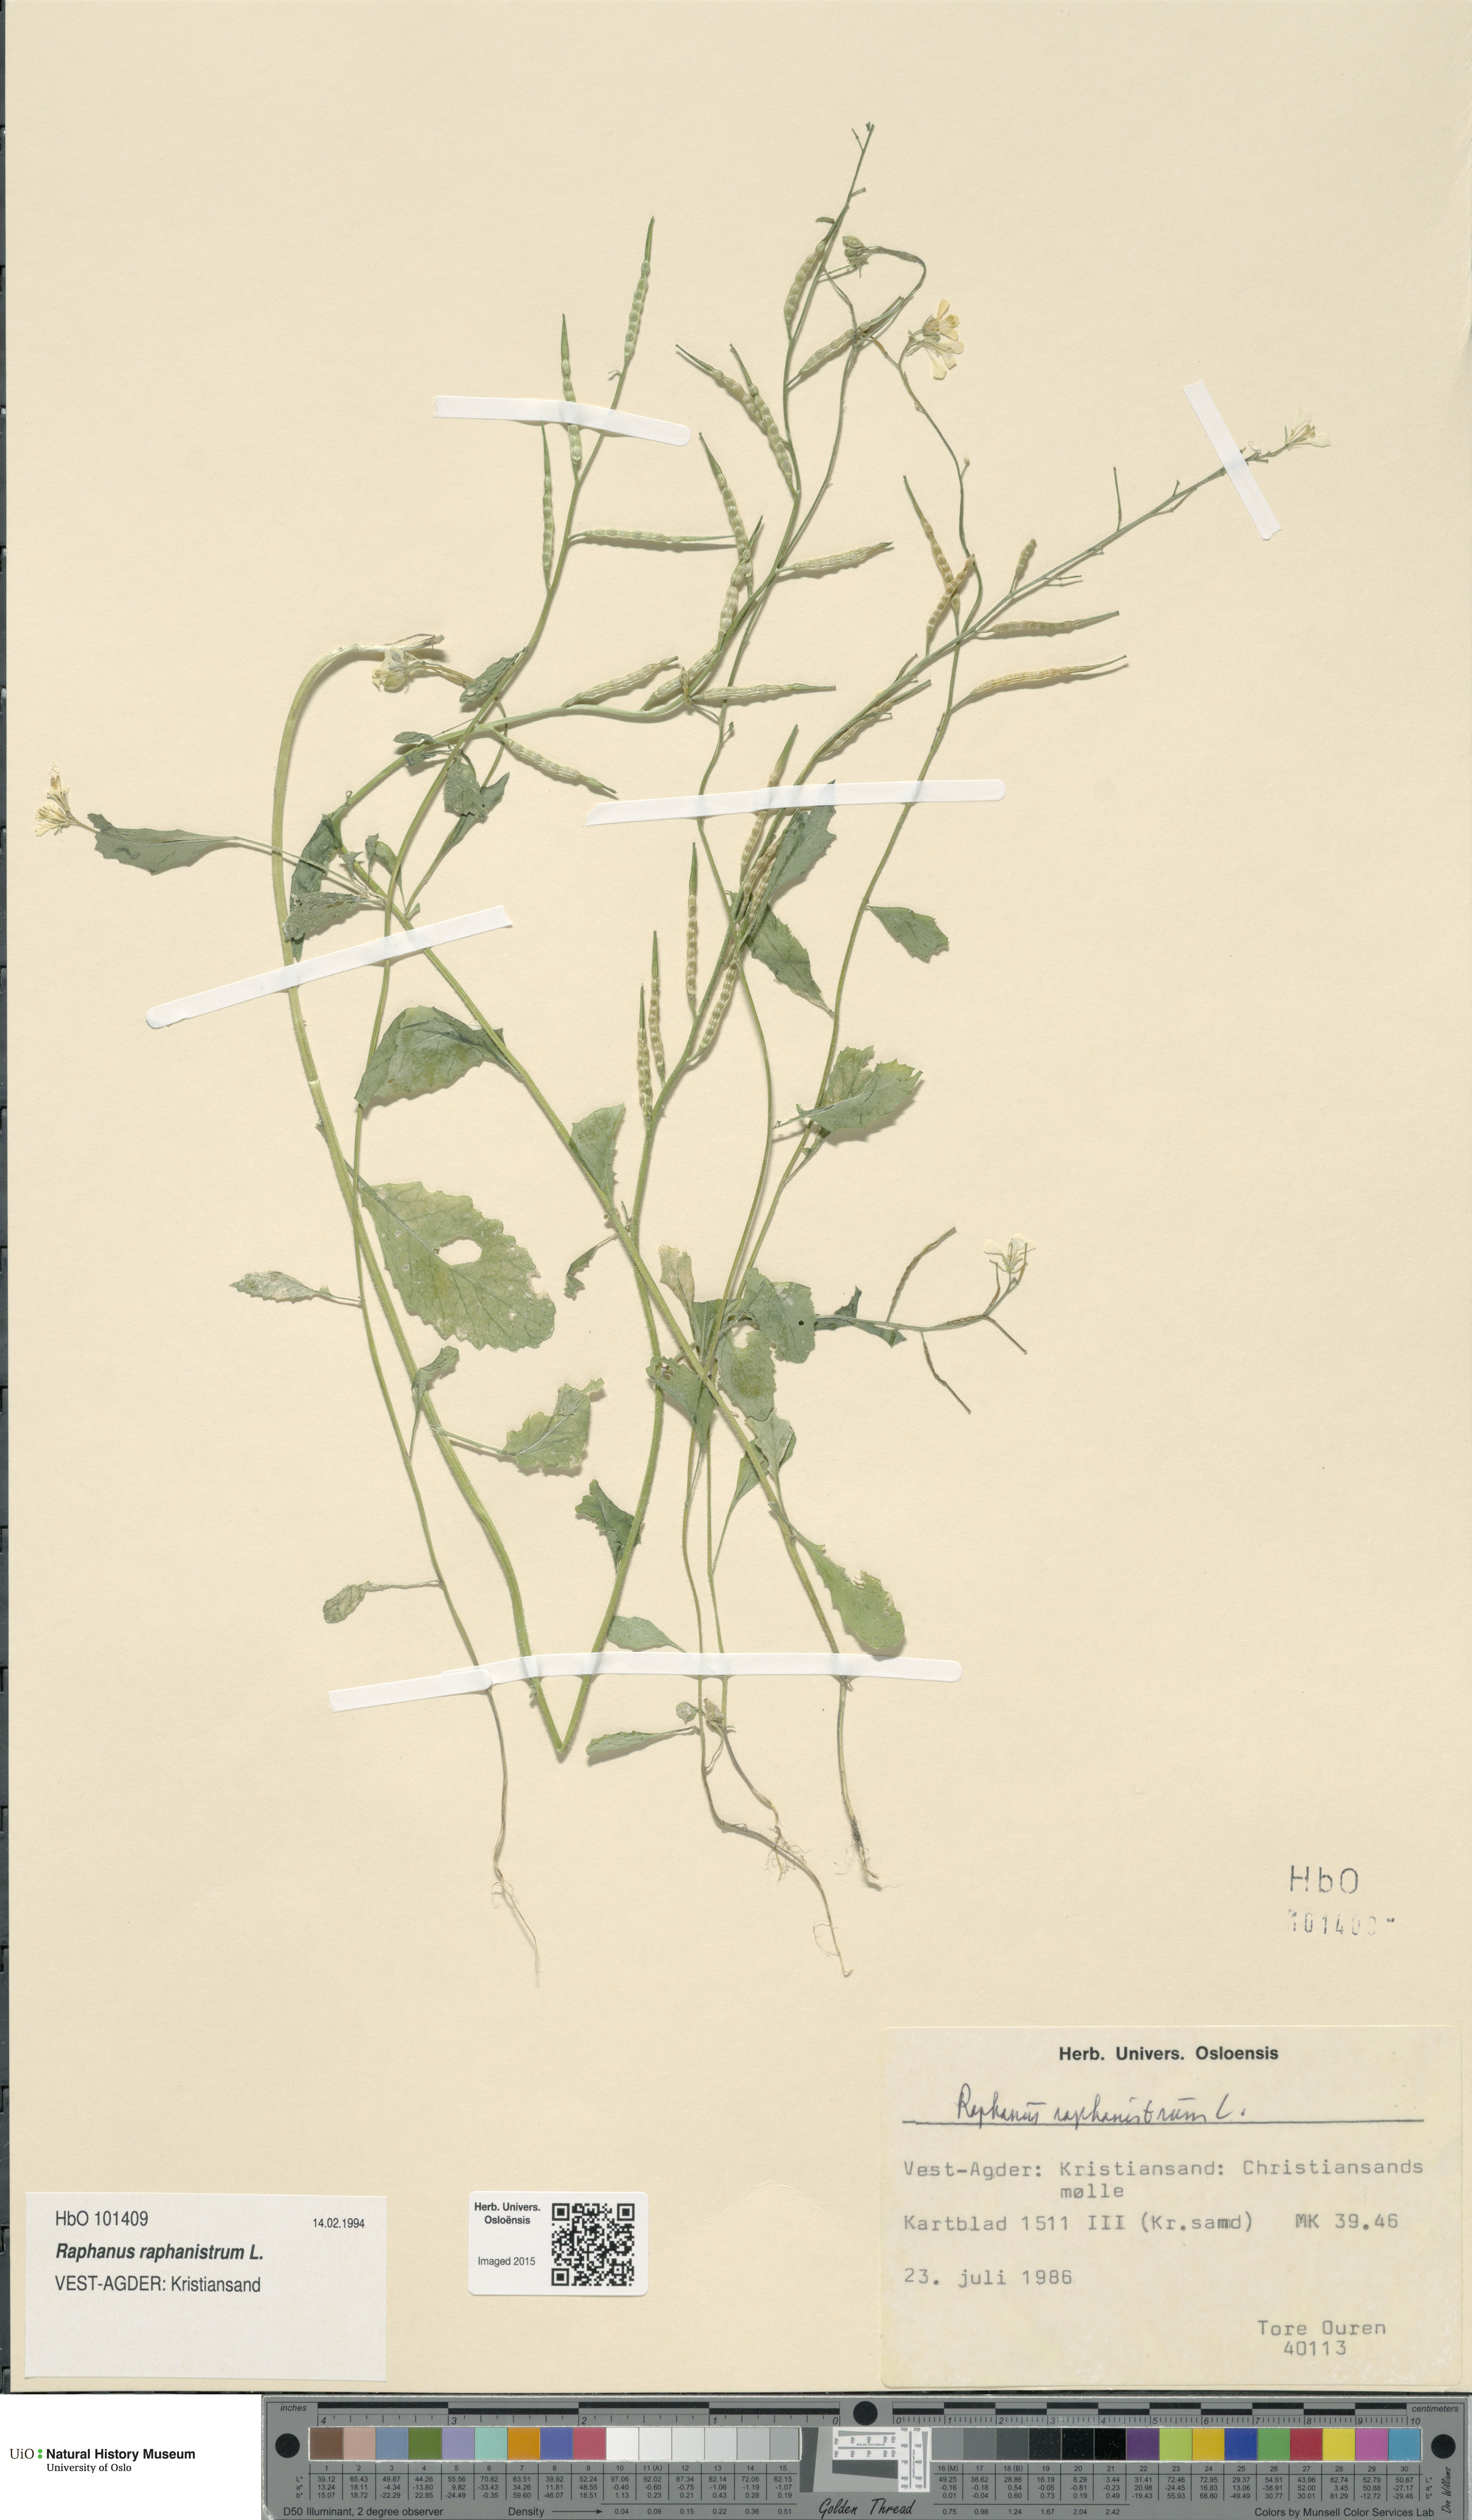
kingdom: Plantae
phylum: Tracheophyta
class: Magnoliopsida
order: Brassicales
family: Brassicaceae
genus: Raphanus
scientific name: Raphanus raphanistrum
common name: Wild radish
